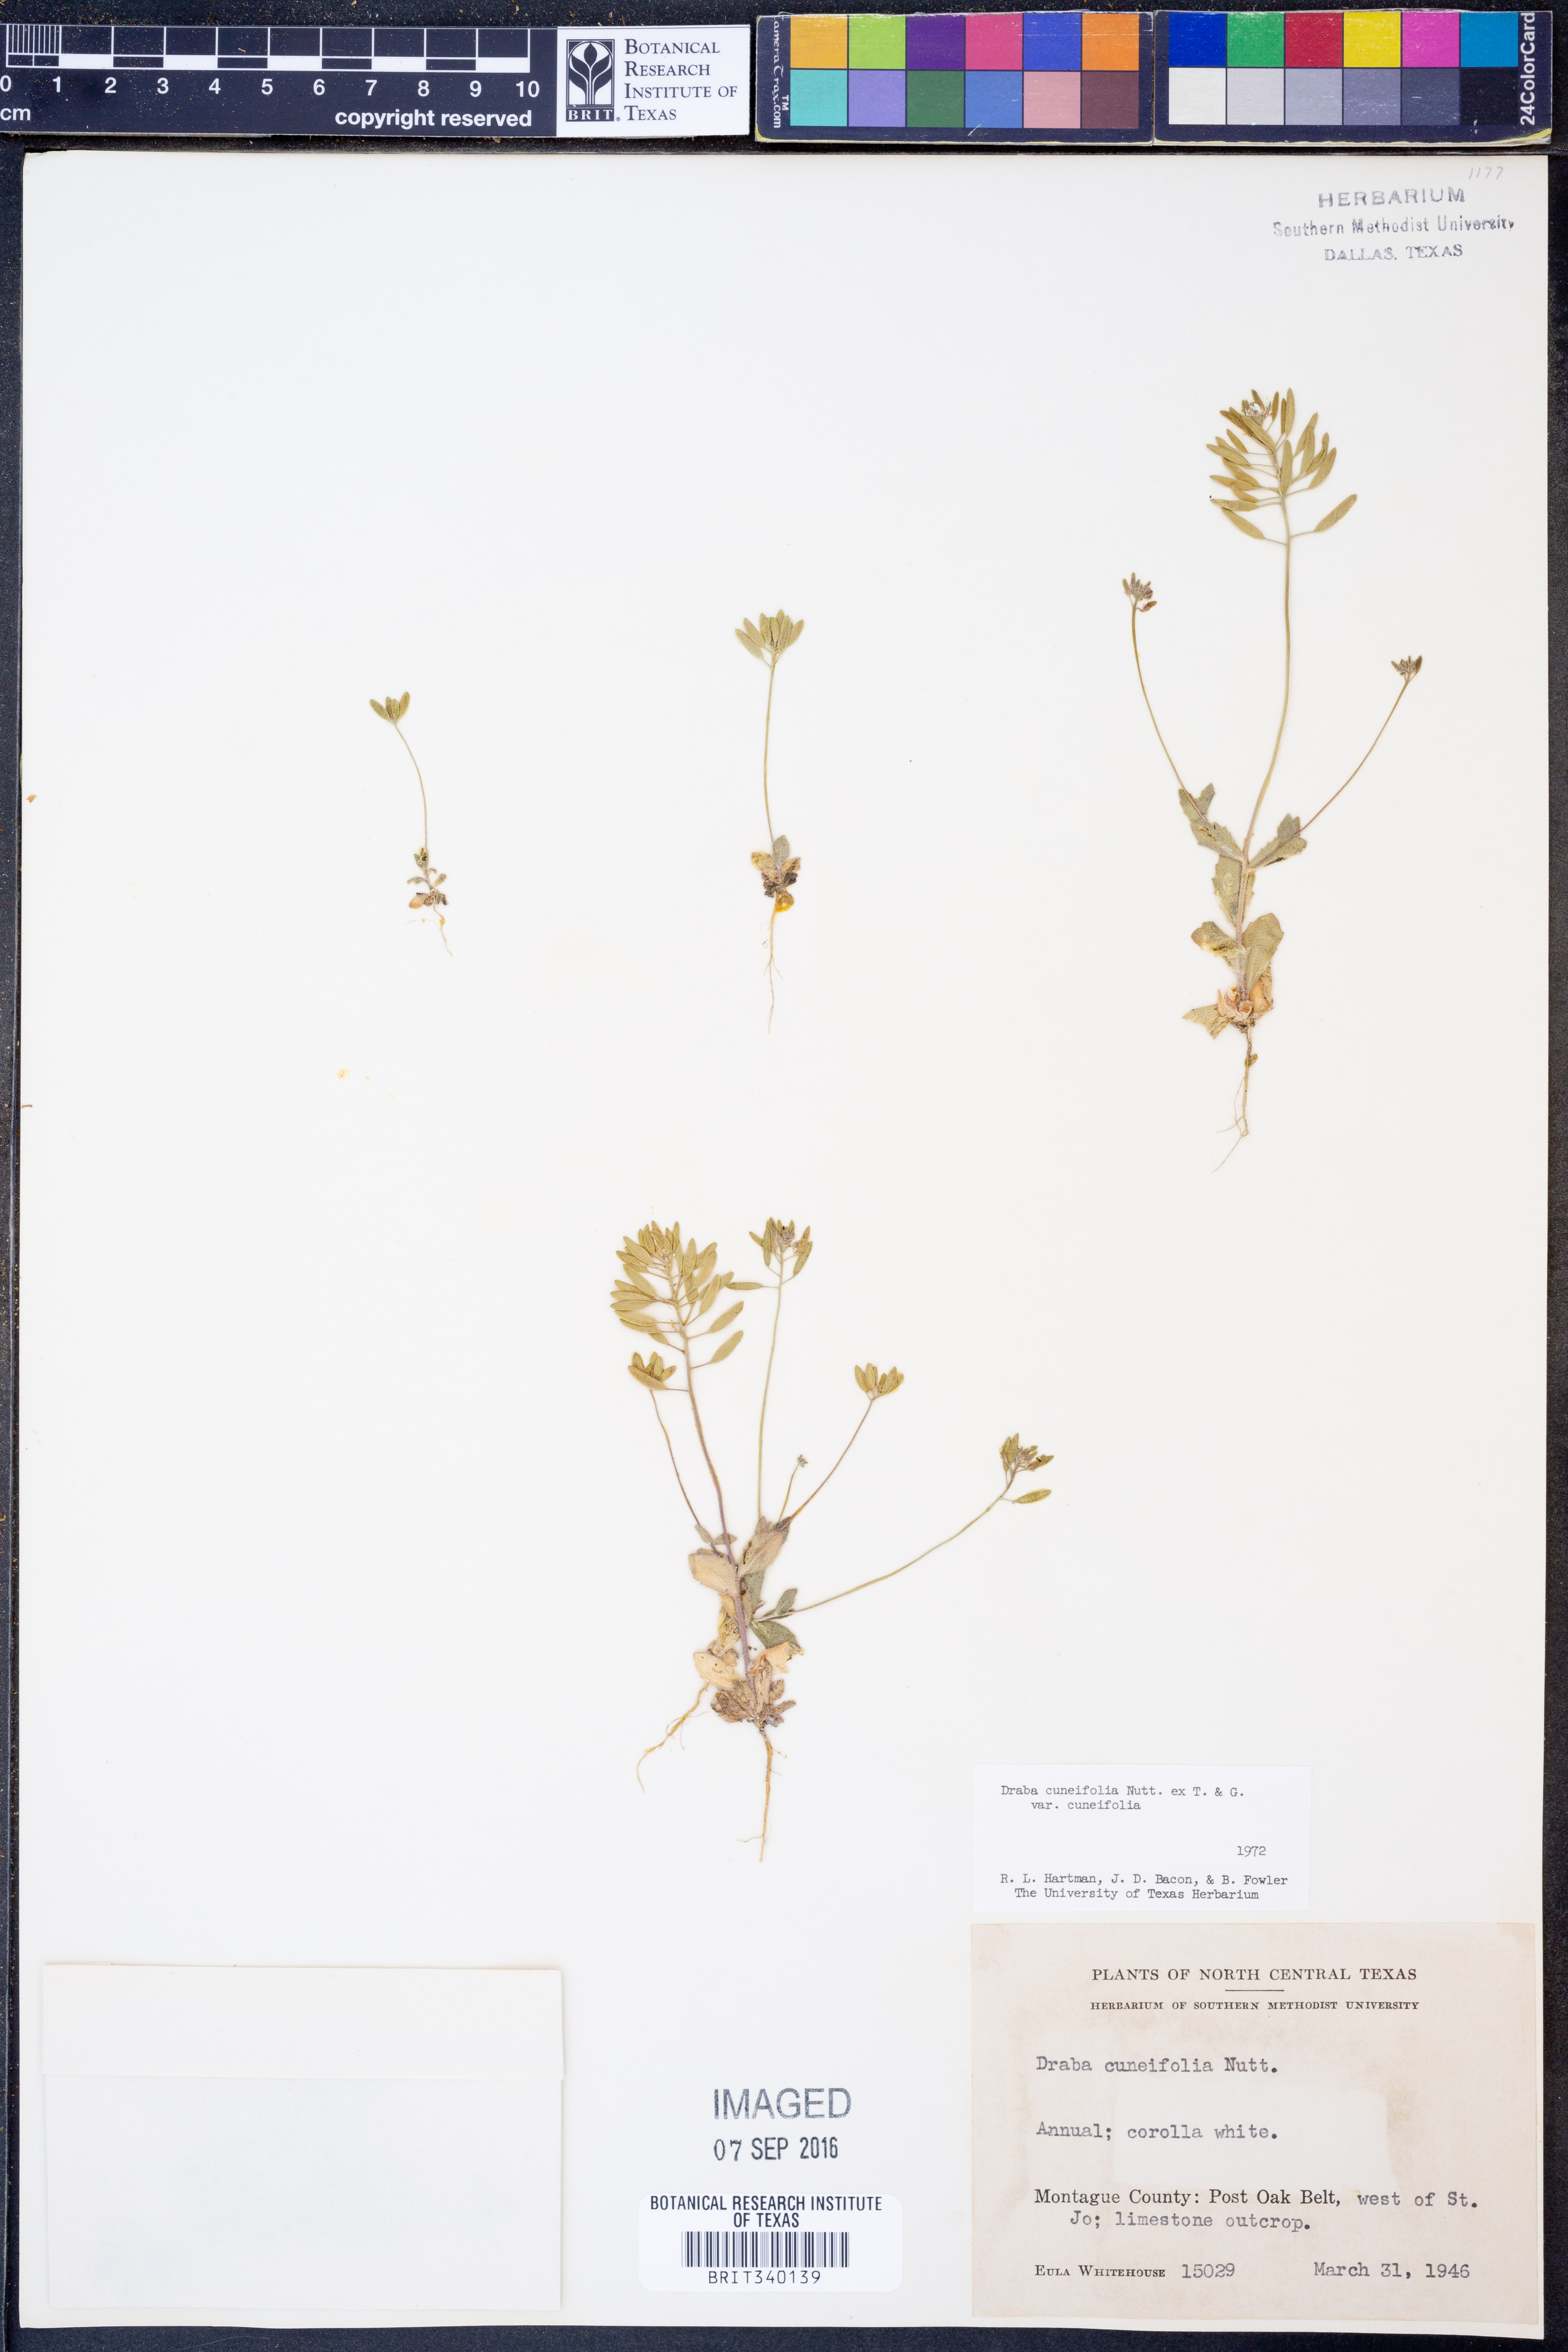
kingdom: Plantae
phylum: Tracheophyta
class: Magnoliopsida
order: Brassicales
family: Brassicaceae
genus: Tomostima
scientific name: Tomostima cuneifolia
